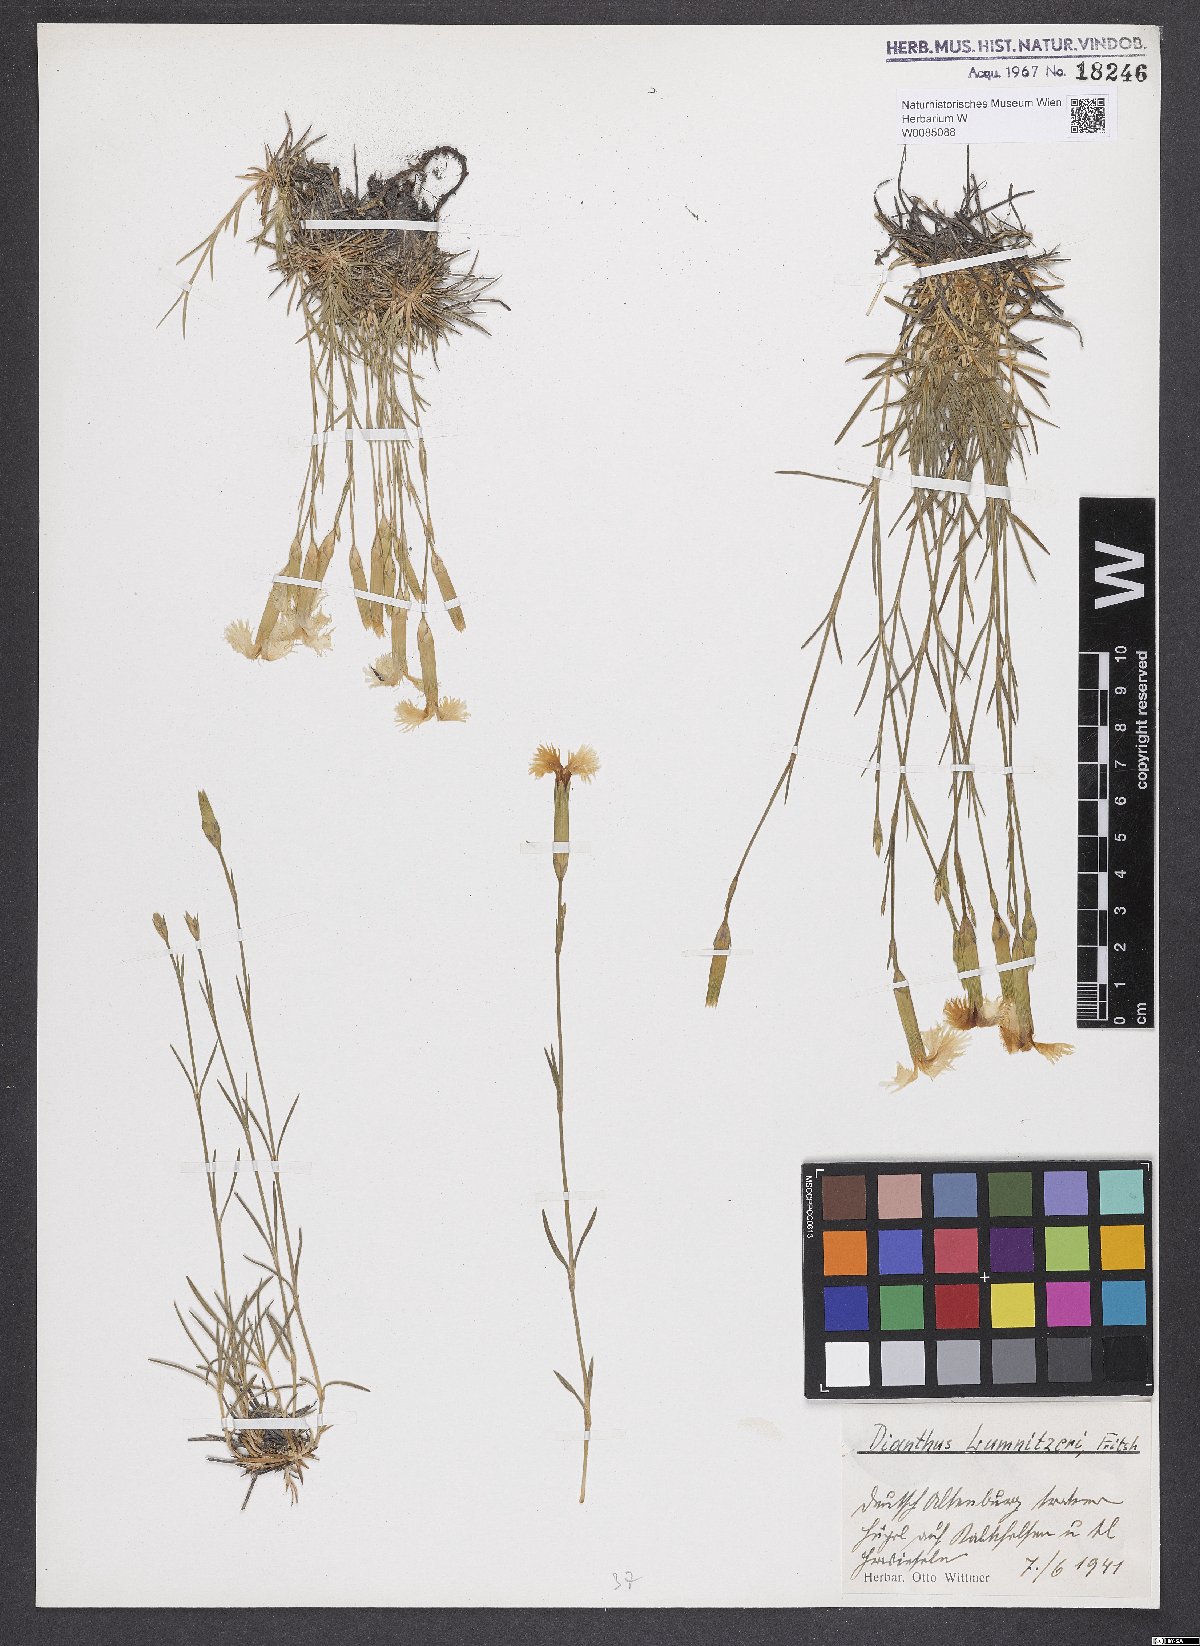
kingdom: Plantae
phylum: Tracheophyta
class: Magnoliopsida
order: Caryophyllales
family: Caryophyllaceae
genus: Dianthus
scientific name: Dianthus praecox
